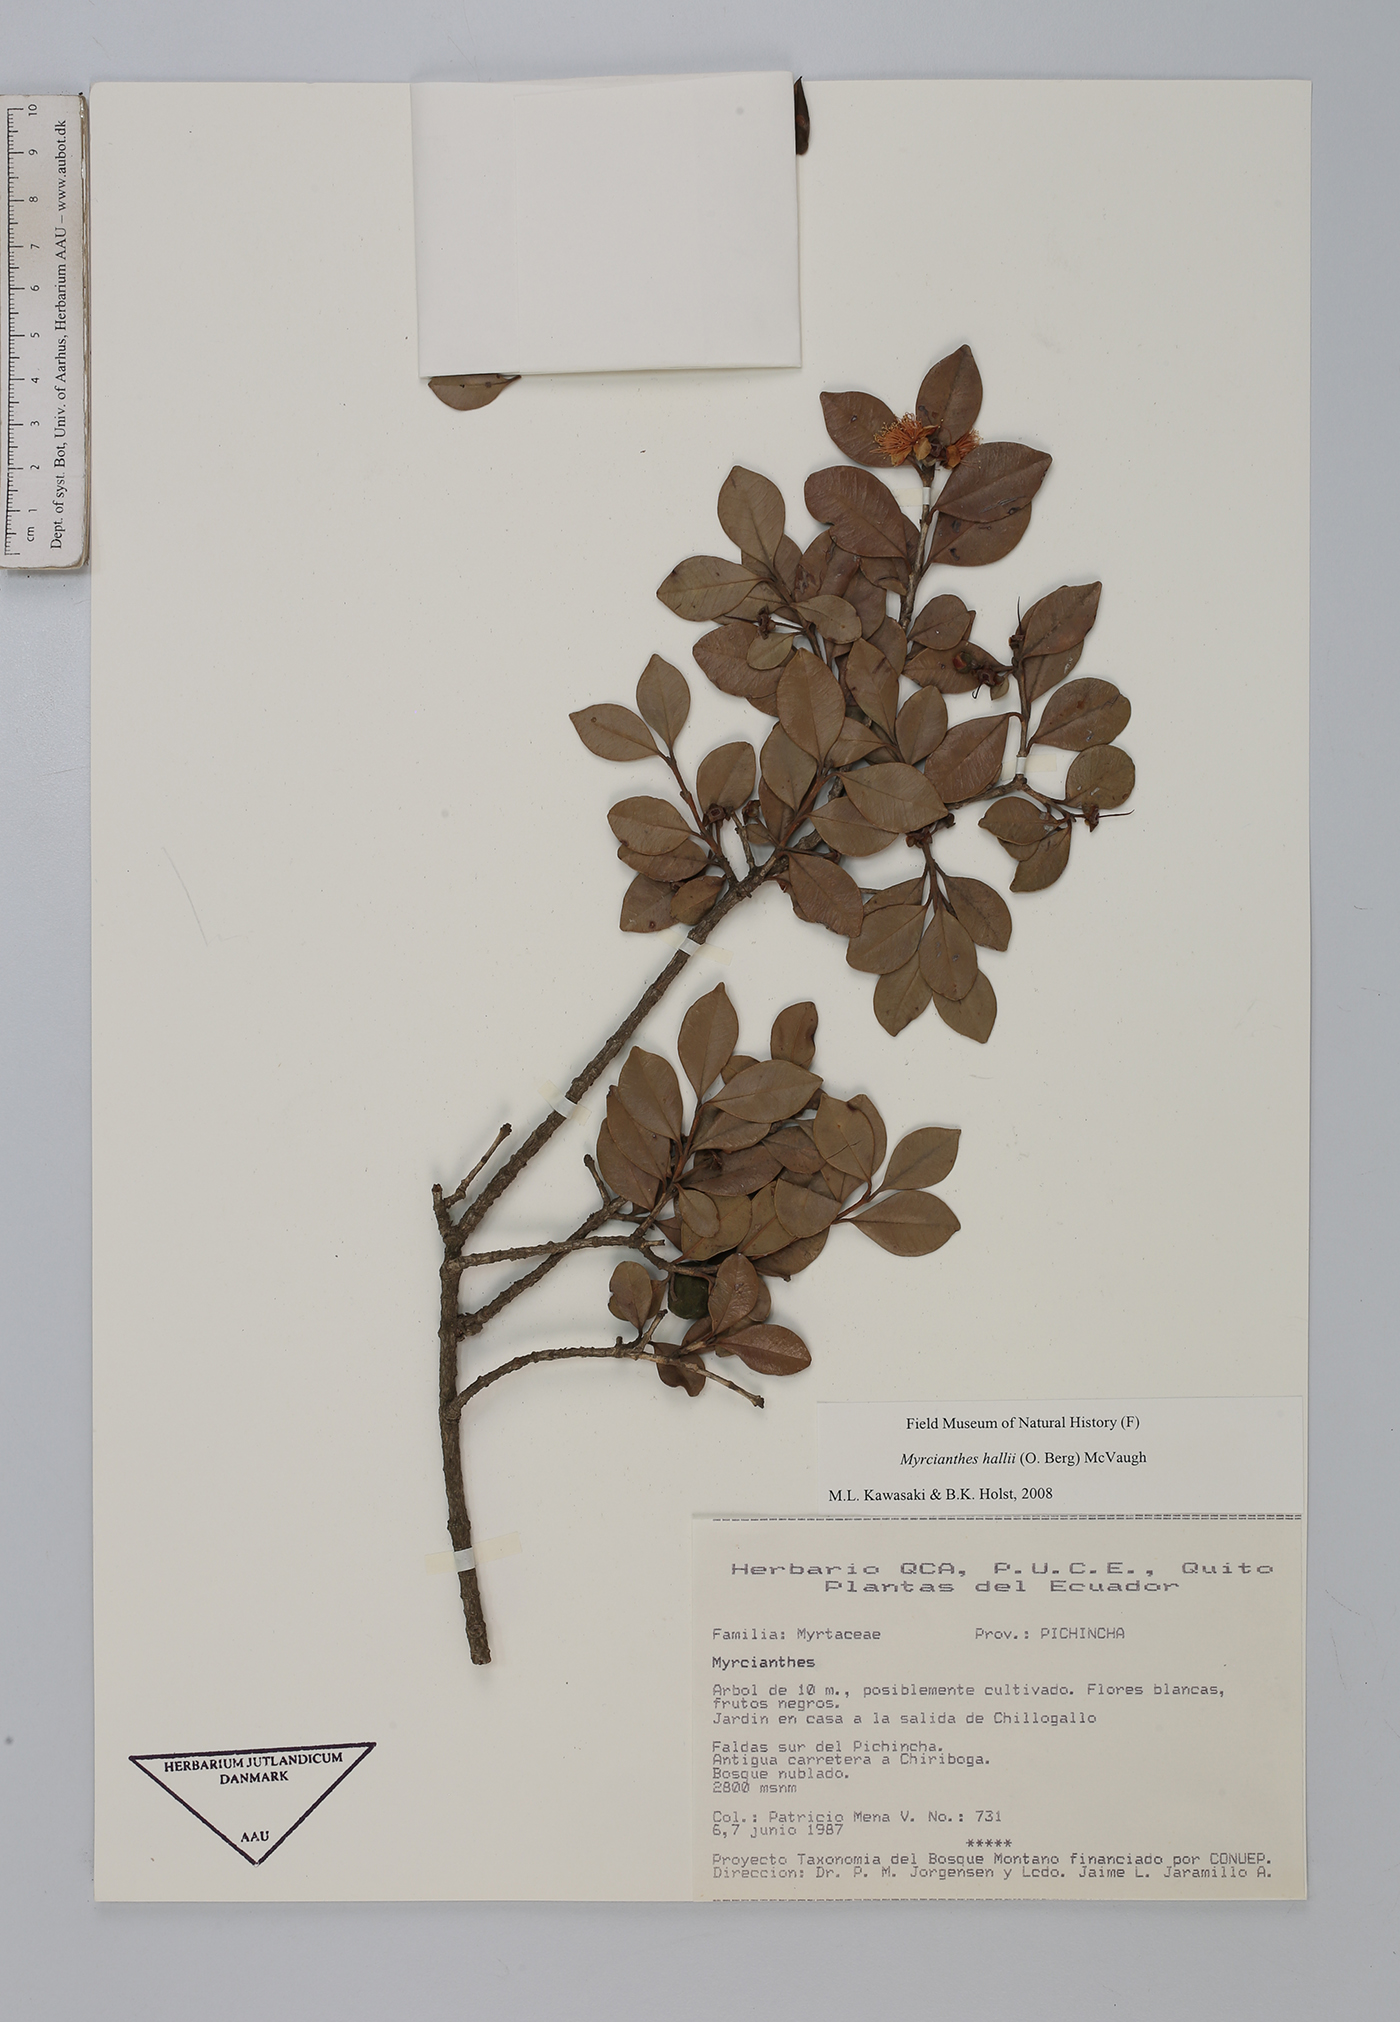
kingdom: Plantae
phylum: Tracheophyta
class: Magnoliopsida
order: Myrtales
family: Myrtaceae
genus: Myrcianthes
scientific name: Myrcianthes hallii
